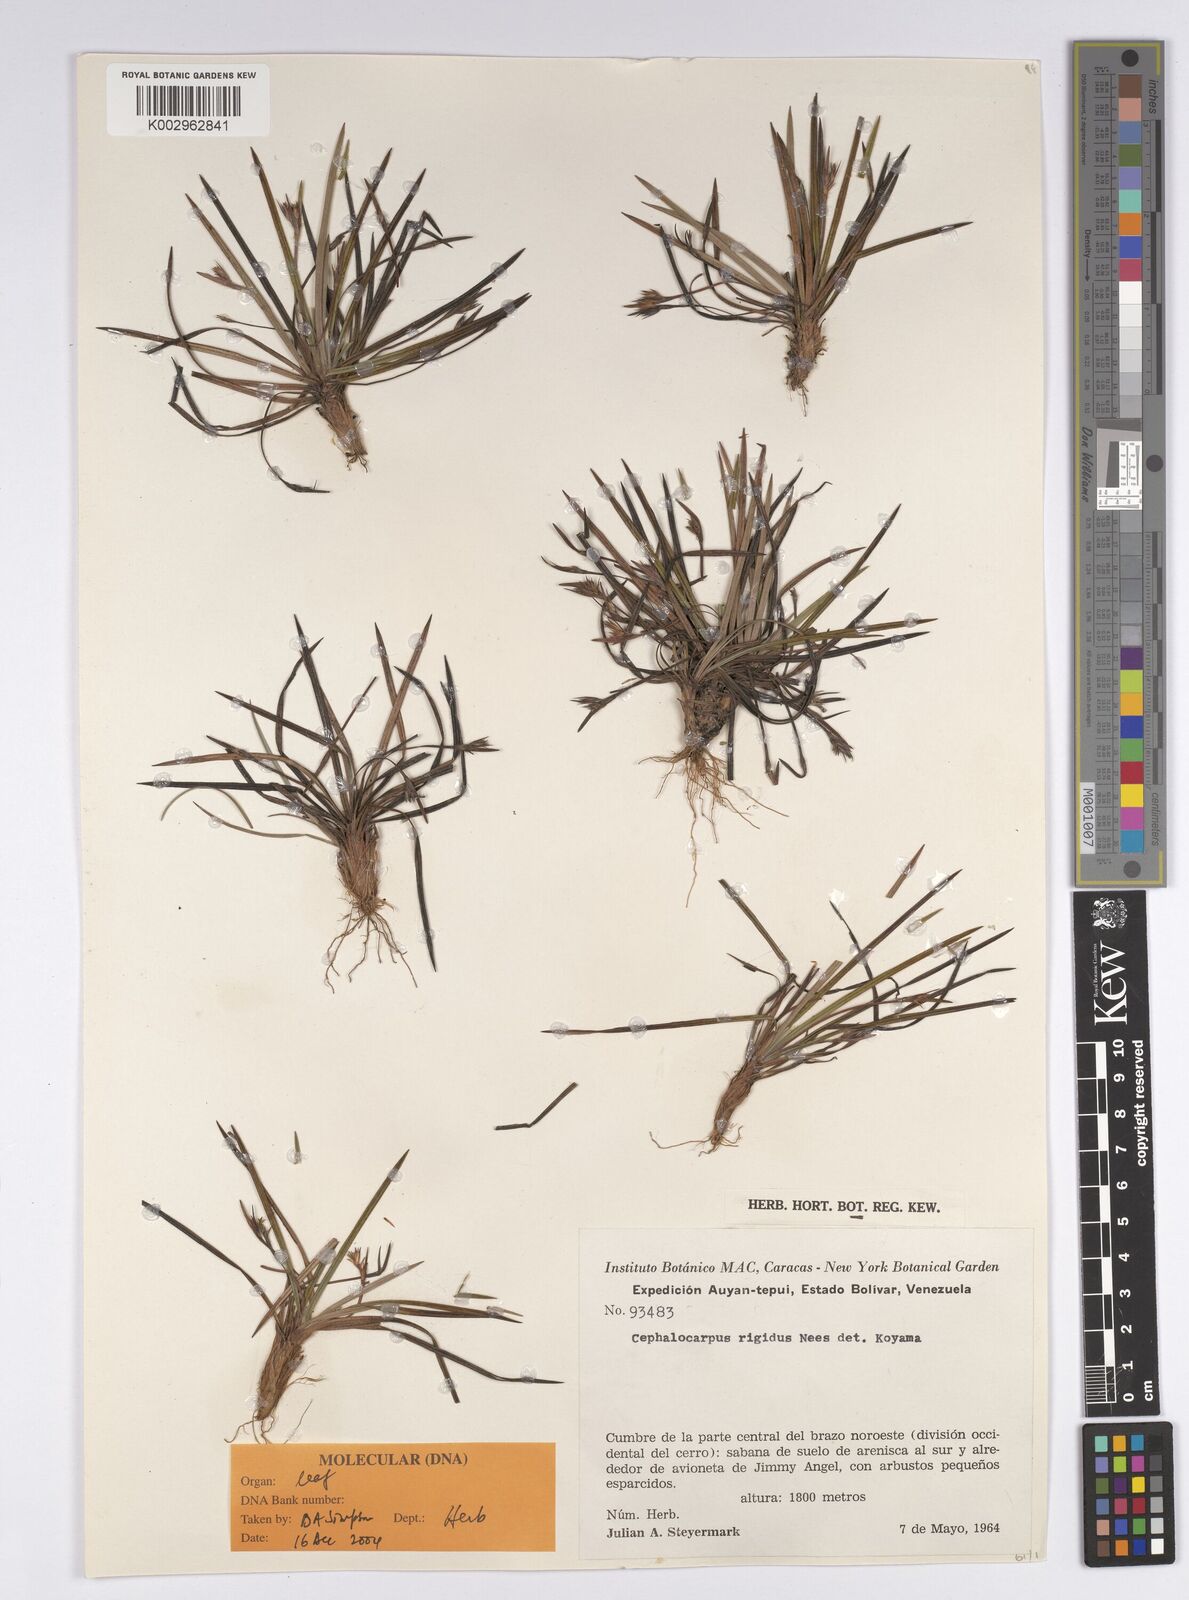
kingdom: Plantae
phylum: Tracheophyta
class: Liliopsida
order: Poales
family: Cyperaceae
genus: Cephalocarpus
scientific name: Cephalocarpus rigidus
